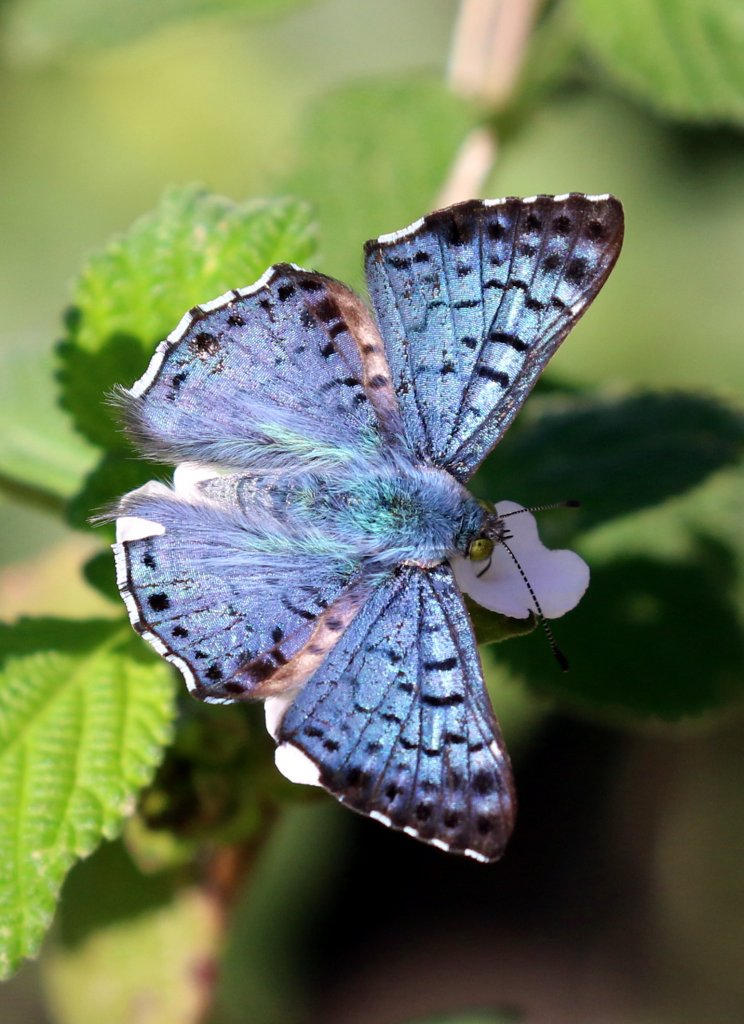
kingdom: Animalia
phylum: Arthropoda
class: Insecta
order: Lepidoptera
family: Riodinidae
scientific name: Riodinidae
